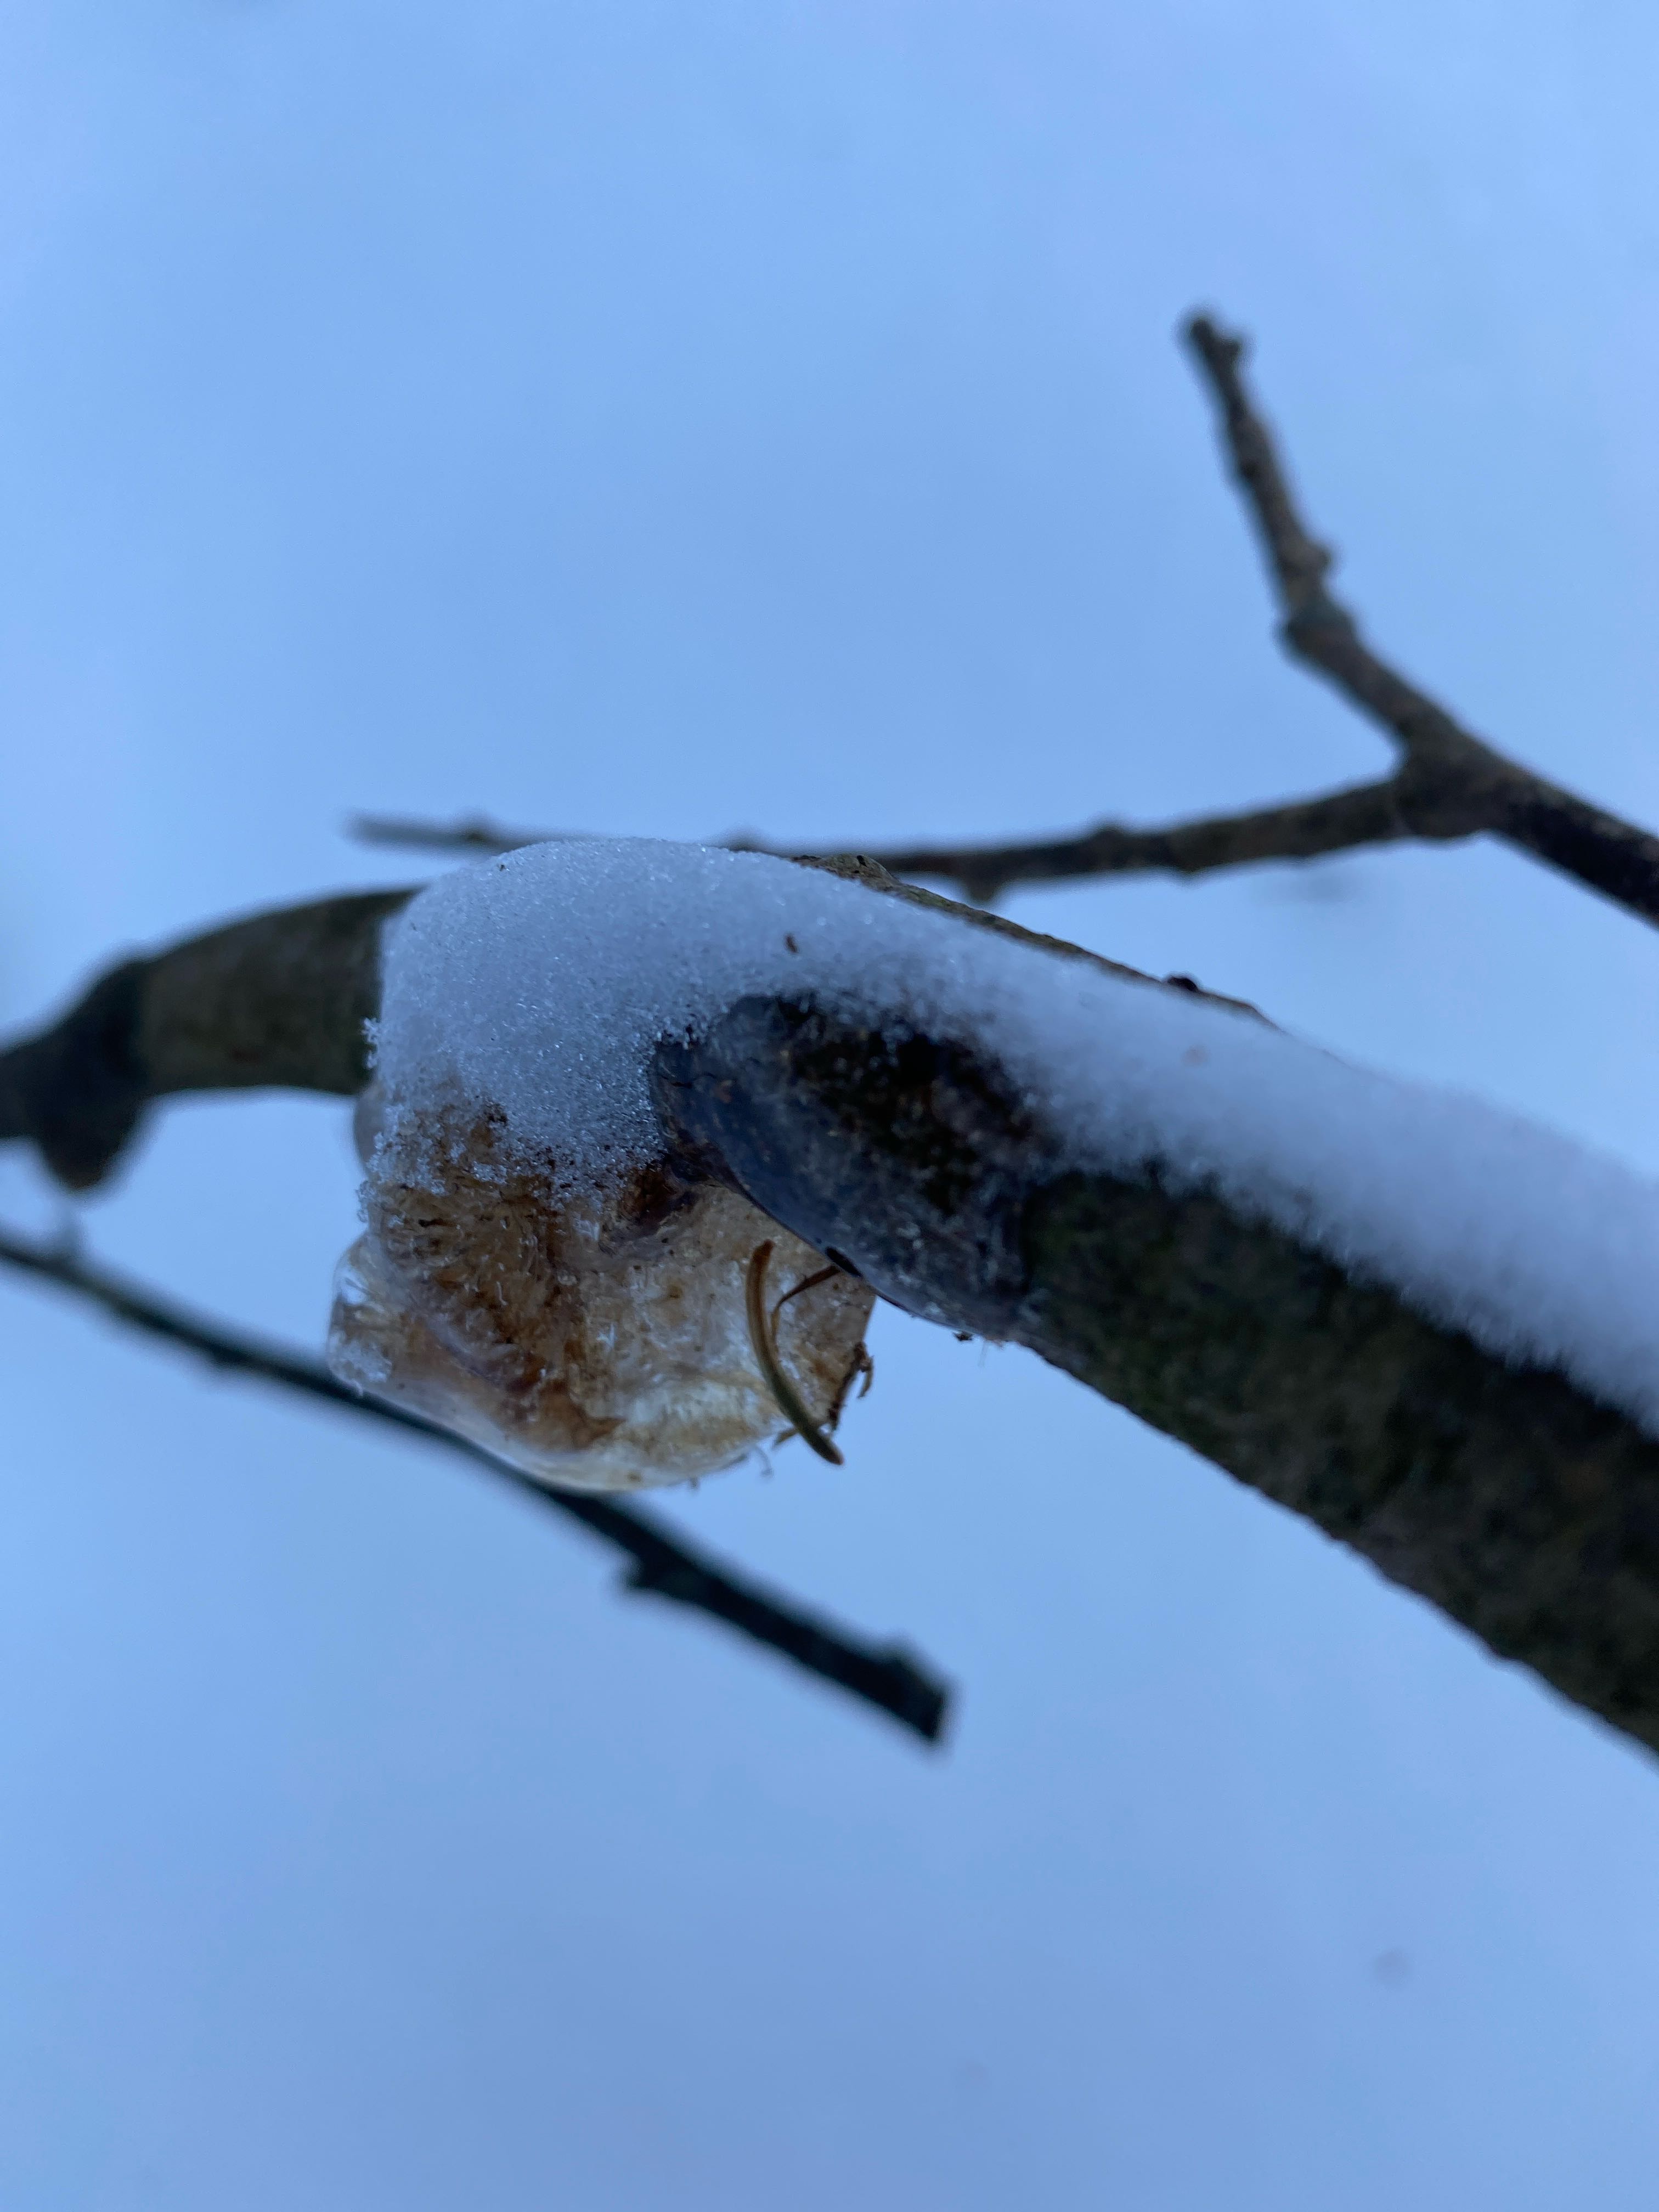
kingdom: Fungi
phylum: Basidiomycota
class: Agaricomycetes
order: Auriculariales
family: Auriculariaceae
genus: Exidia
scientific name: Exidia recisa
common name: pile-bævretop
